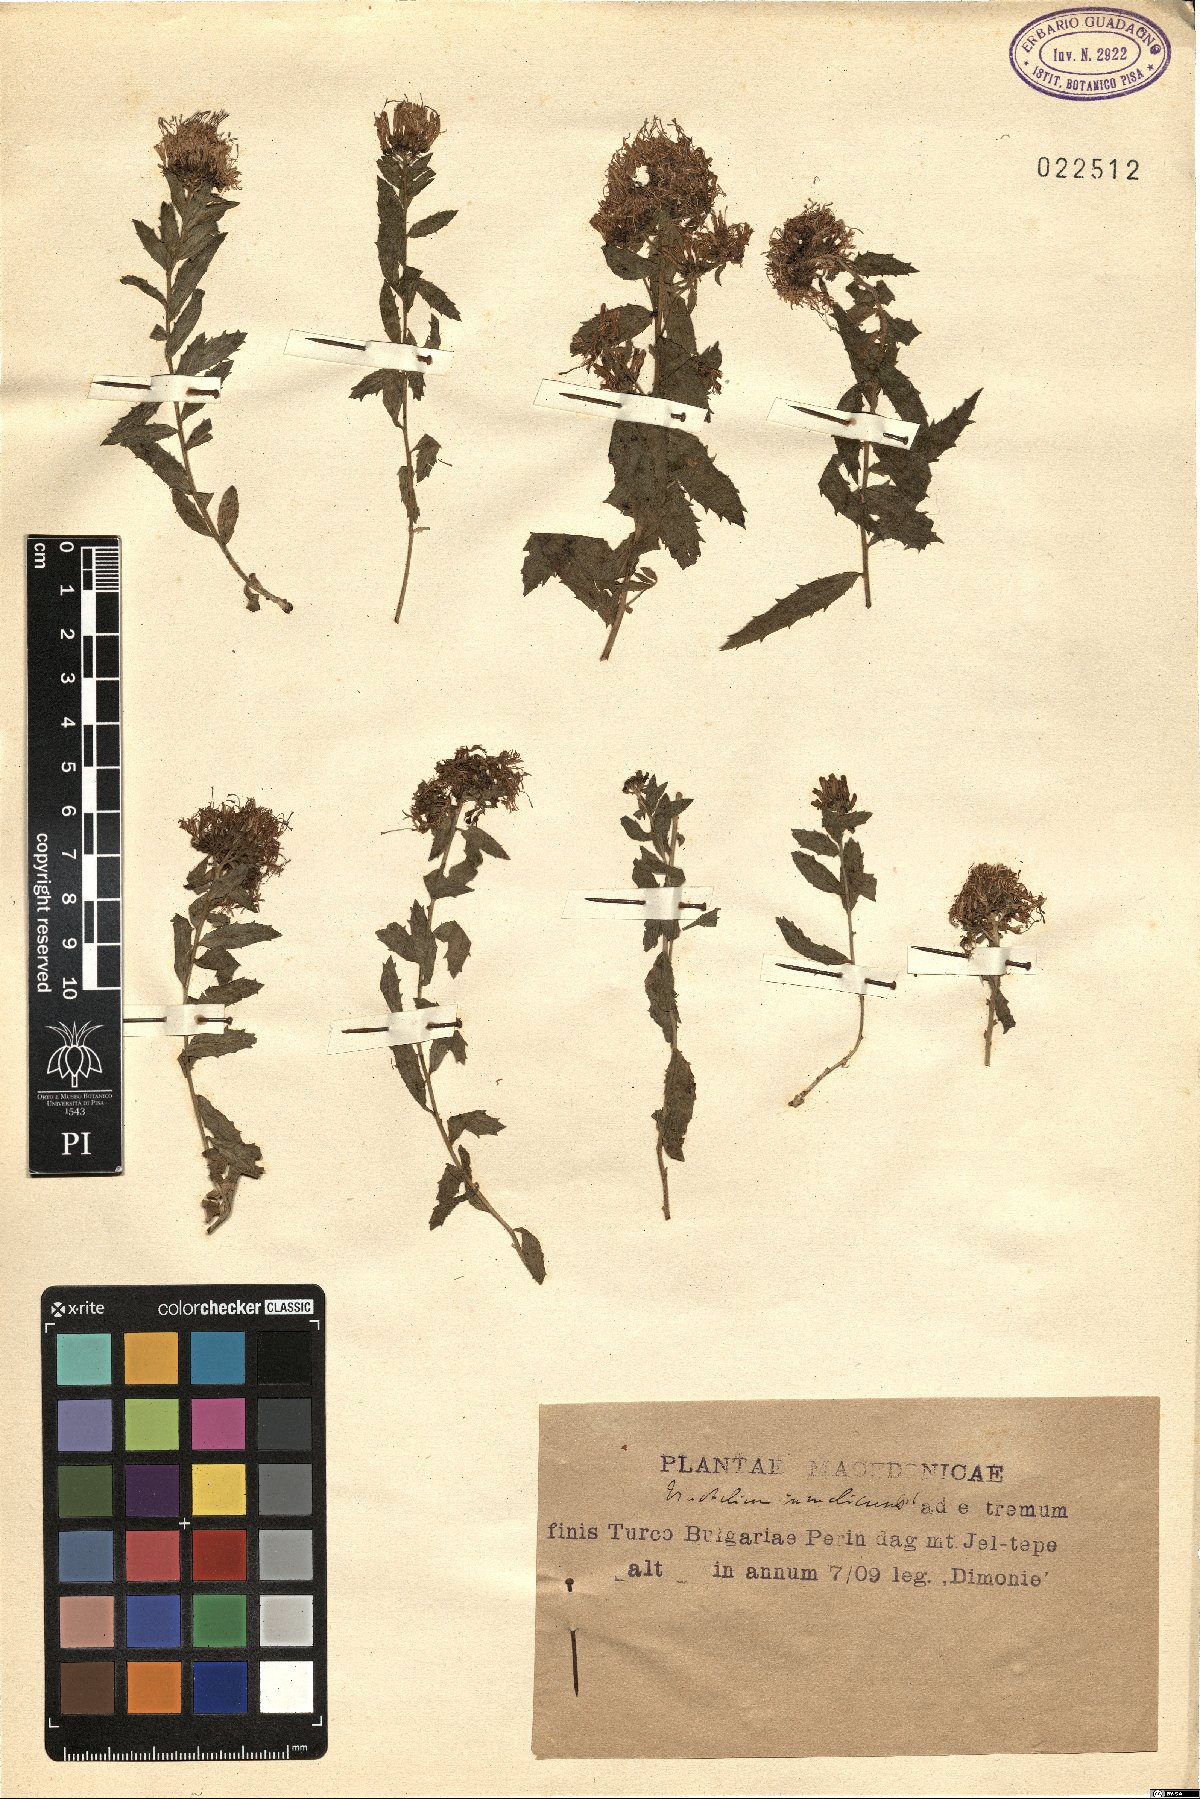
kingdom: Plantae
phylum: Tracheophyta
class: Magnoliopsida
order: Asterales
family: Campanulaceae
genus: Campanula
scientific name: Campanula rumeliana
